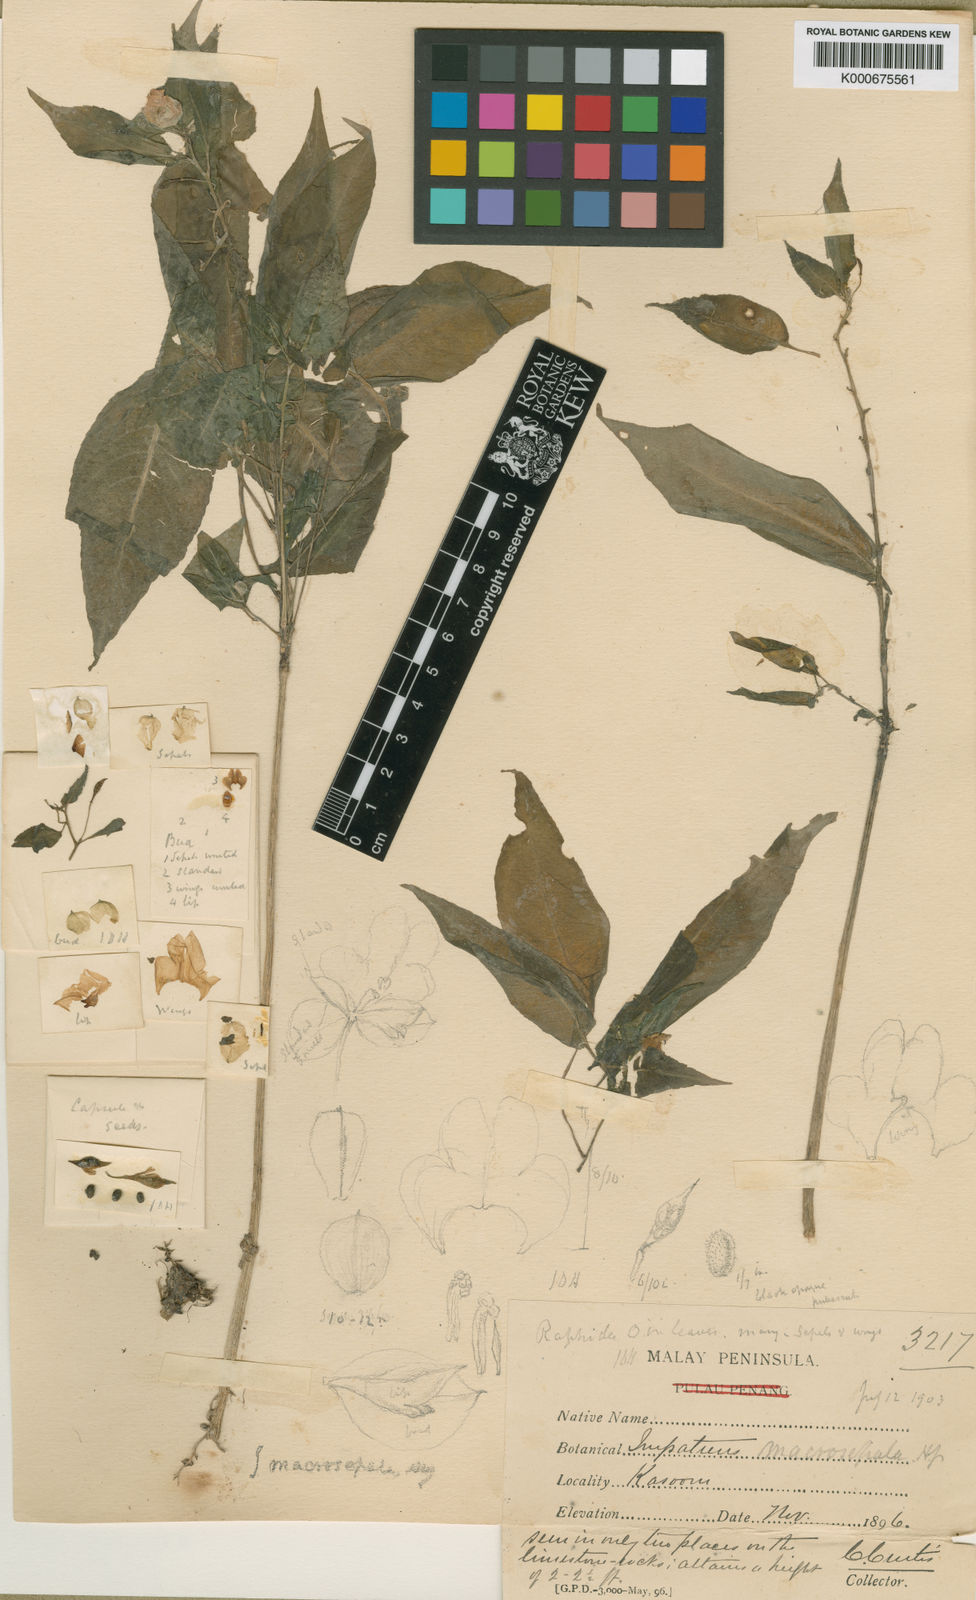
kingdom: Plantae
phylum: Tracheophyta
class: Magnoliopsida
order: Ericales
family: Balsaminaceae
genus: Impatiens
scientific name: Impatiens macrosepala
